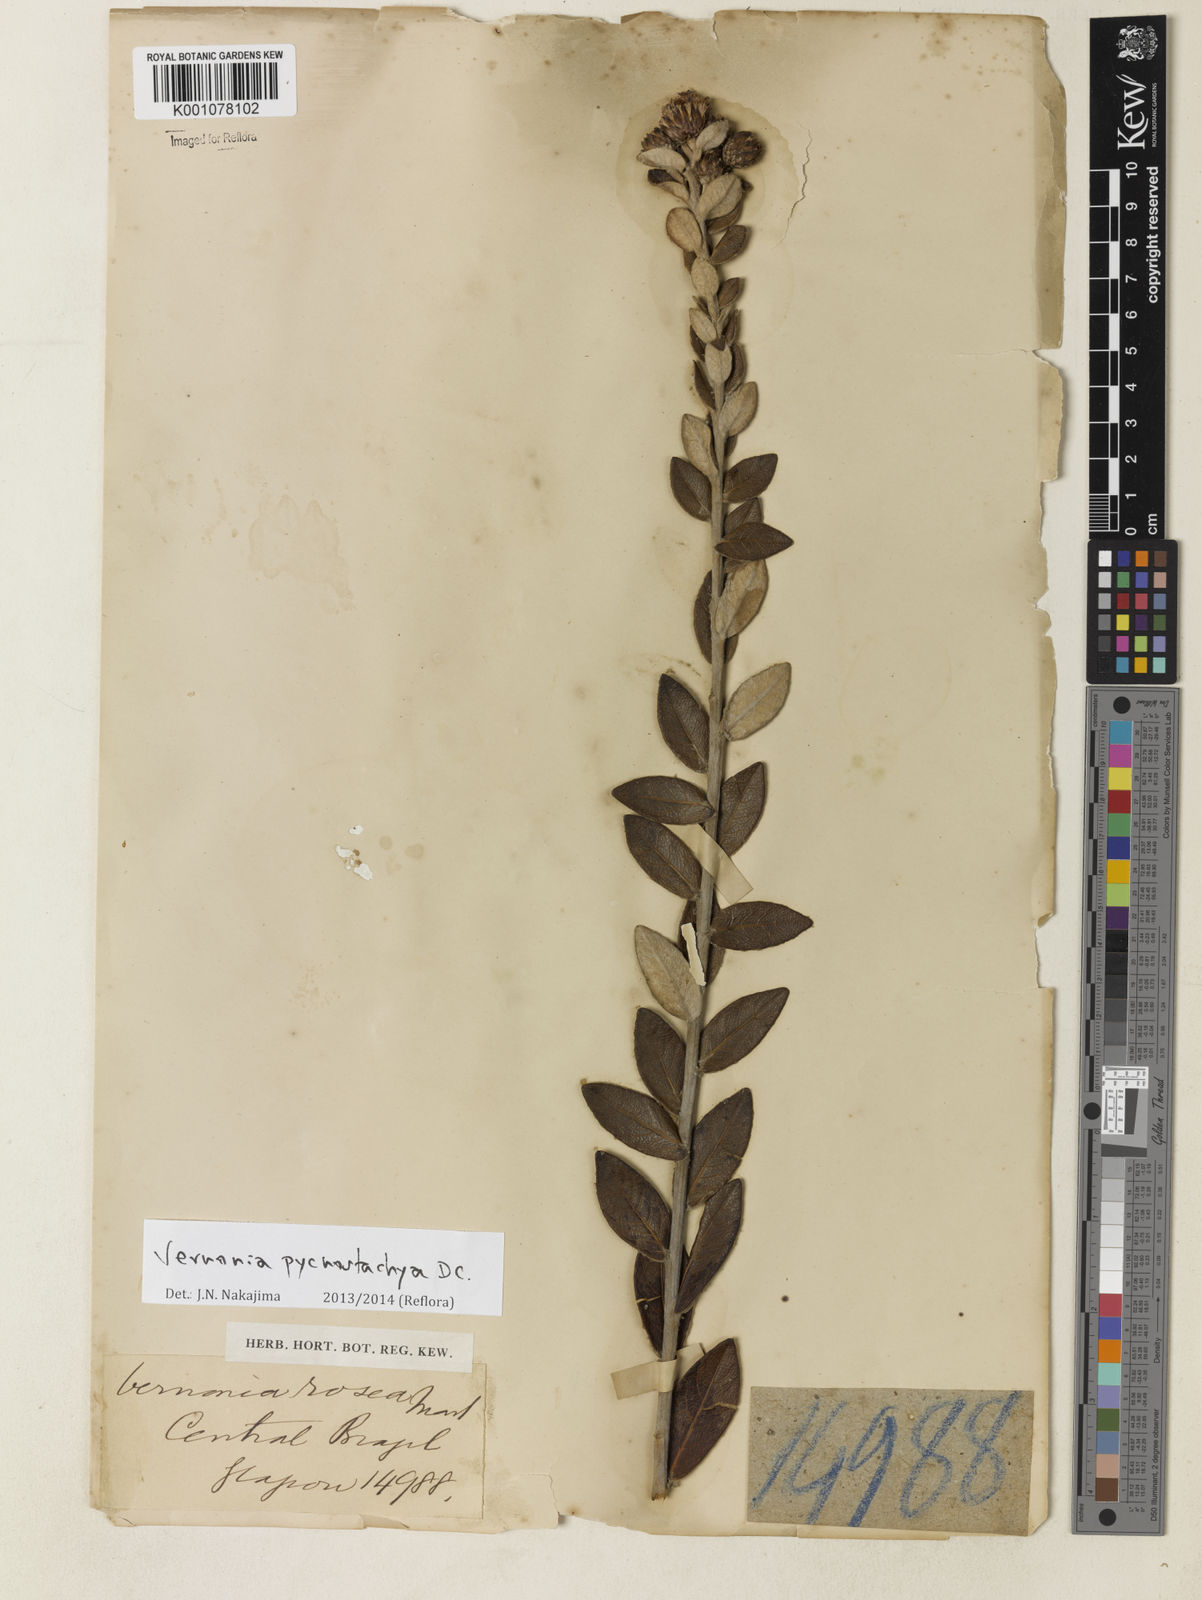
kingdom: Plantae
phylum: Tracheophyta
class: Magnoliopsida
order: Asterales
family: Asteraceae
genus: Lessingianthus
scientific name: Lessingianthus pycnostachyus
